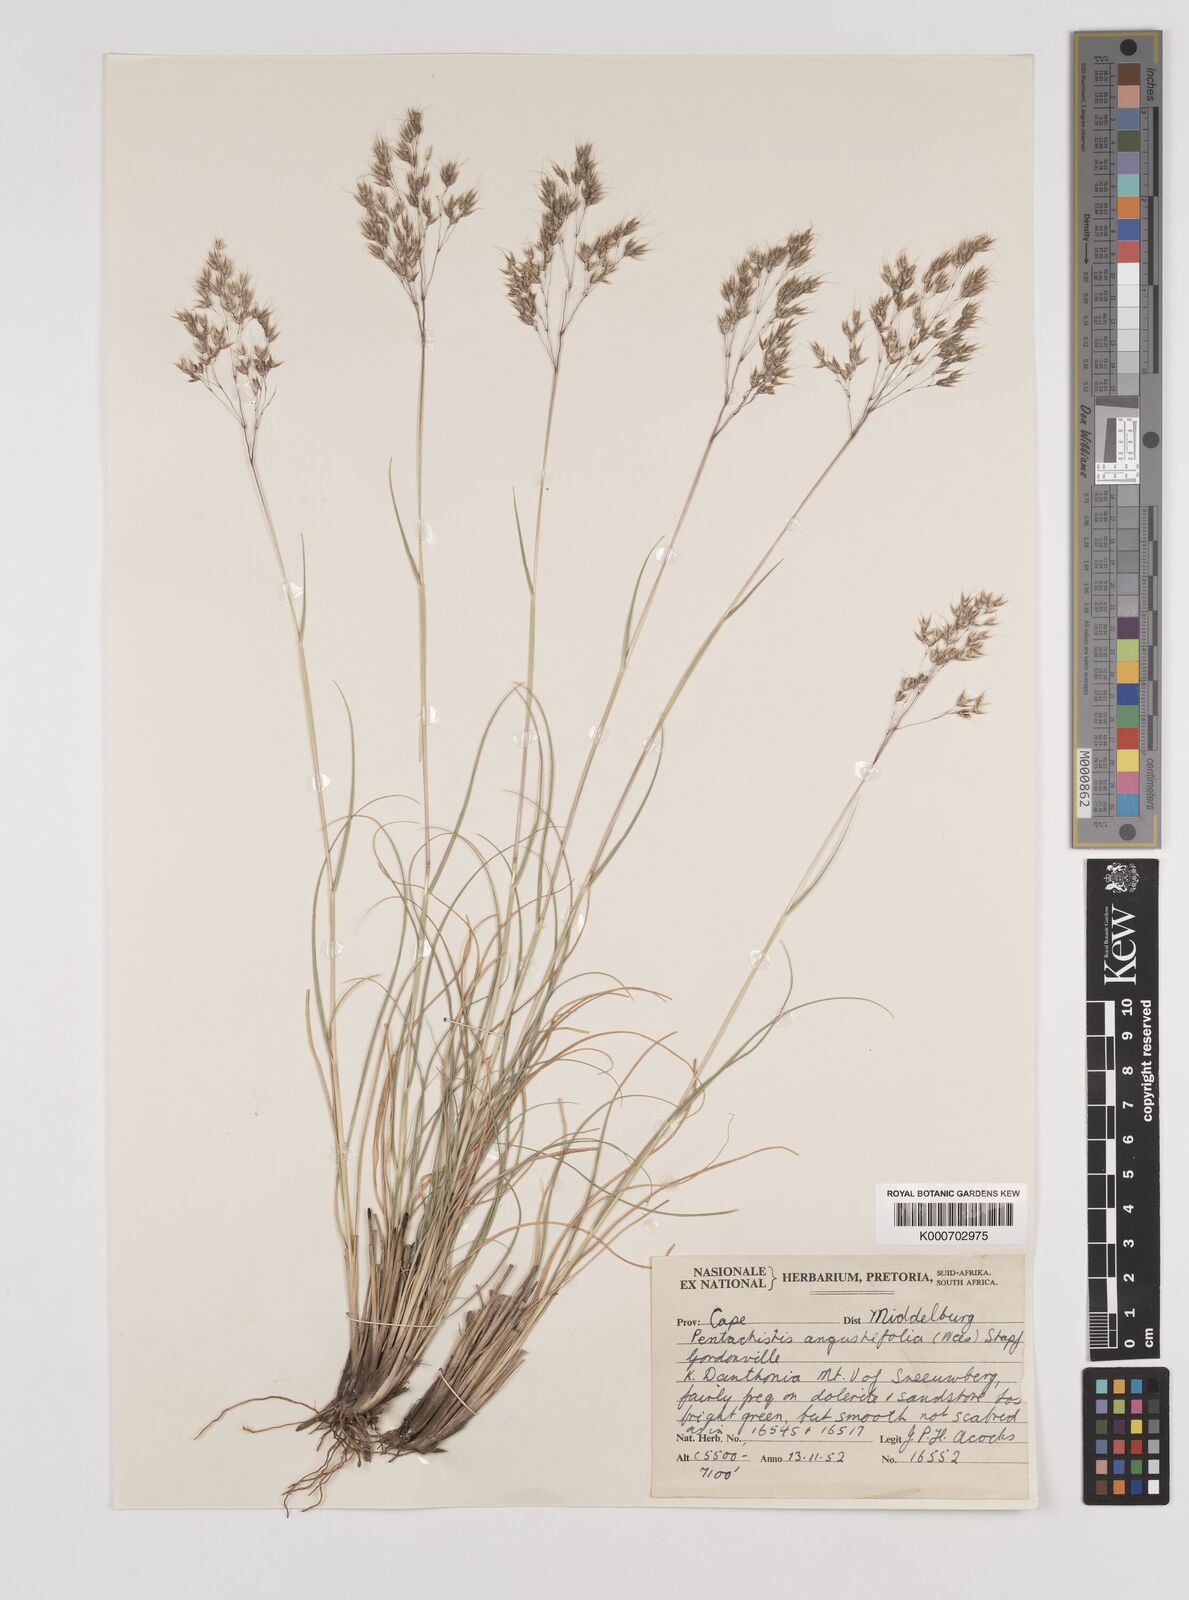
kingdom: Plantae
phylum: Tracheophyta
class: Liliopsida
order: Poales
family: Poaceae
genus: Pentameris
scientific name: Pentameris pallida
